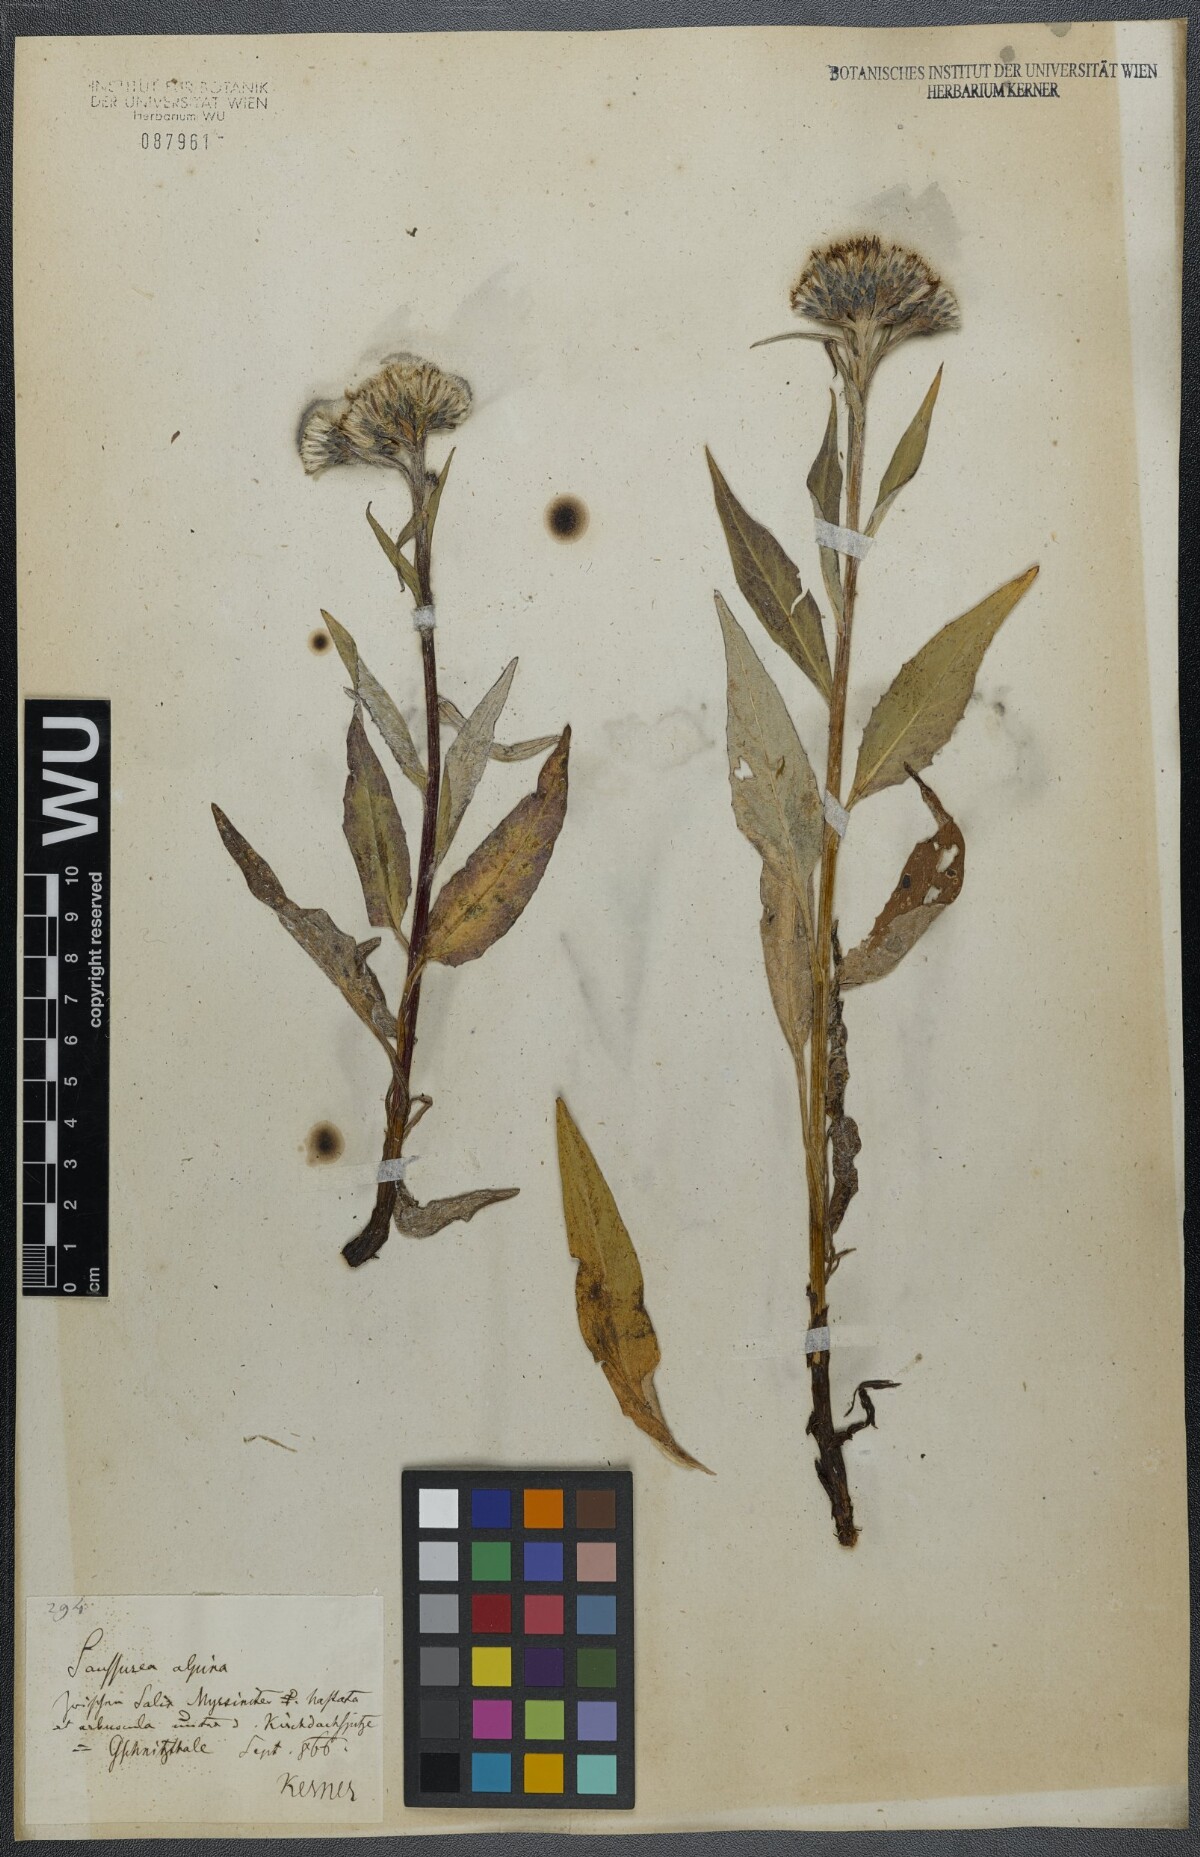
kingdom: Plantae
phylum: Tracheophyta
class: Magnoliopsida
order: Asterales
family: Asteraceae
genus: Saussurea
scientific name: Saussurea alpina
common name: Alpine saw-wort
